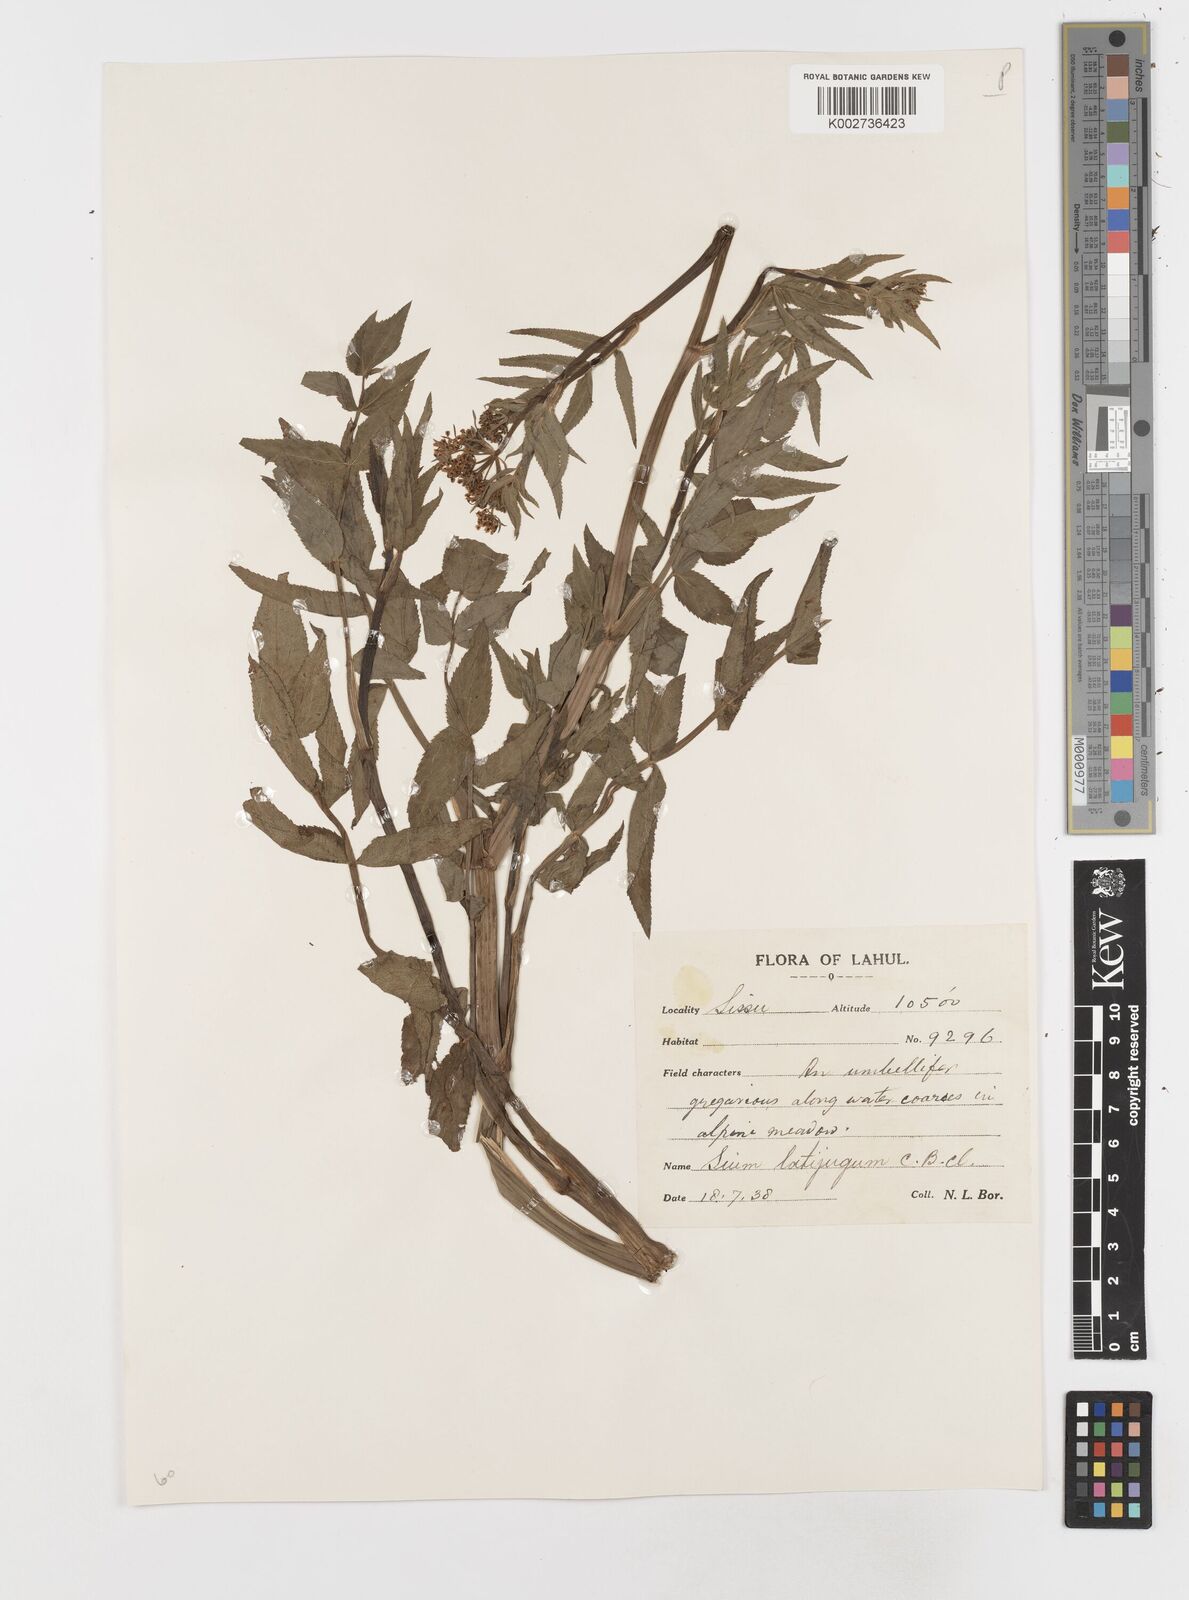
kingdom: Plantae
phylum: Tracheophyta
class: Magnoliopsida
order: Apiales
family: Apiaceae
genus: Sium
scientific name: Sium sisarum
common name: Skirret
